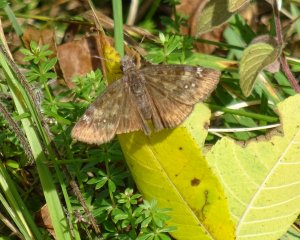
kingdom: Animalia
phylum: Arthropoda
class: Insecta
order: Lepidoptera
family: Hesperiidae
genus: Gesta
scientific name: Gesta
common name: Wild Indigo Duskywing
